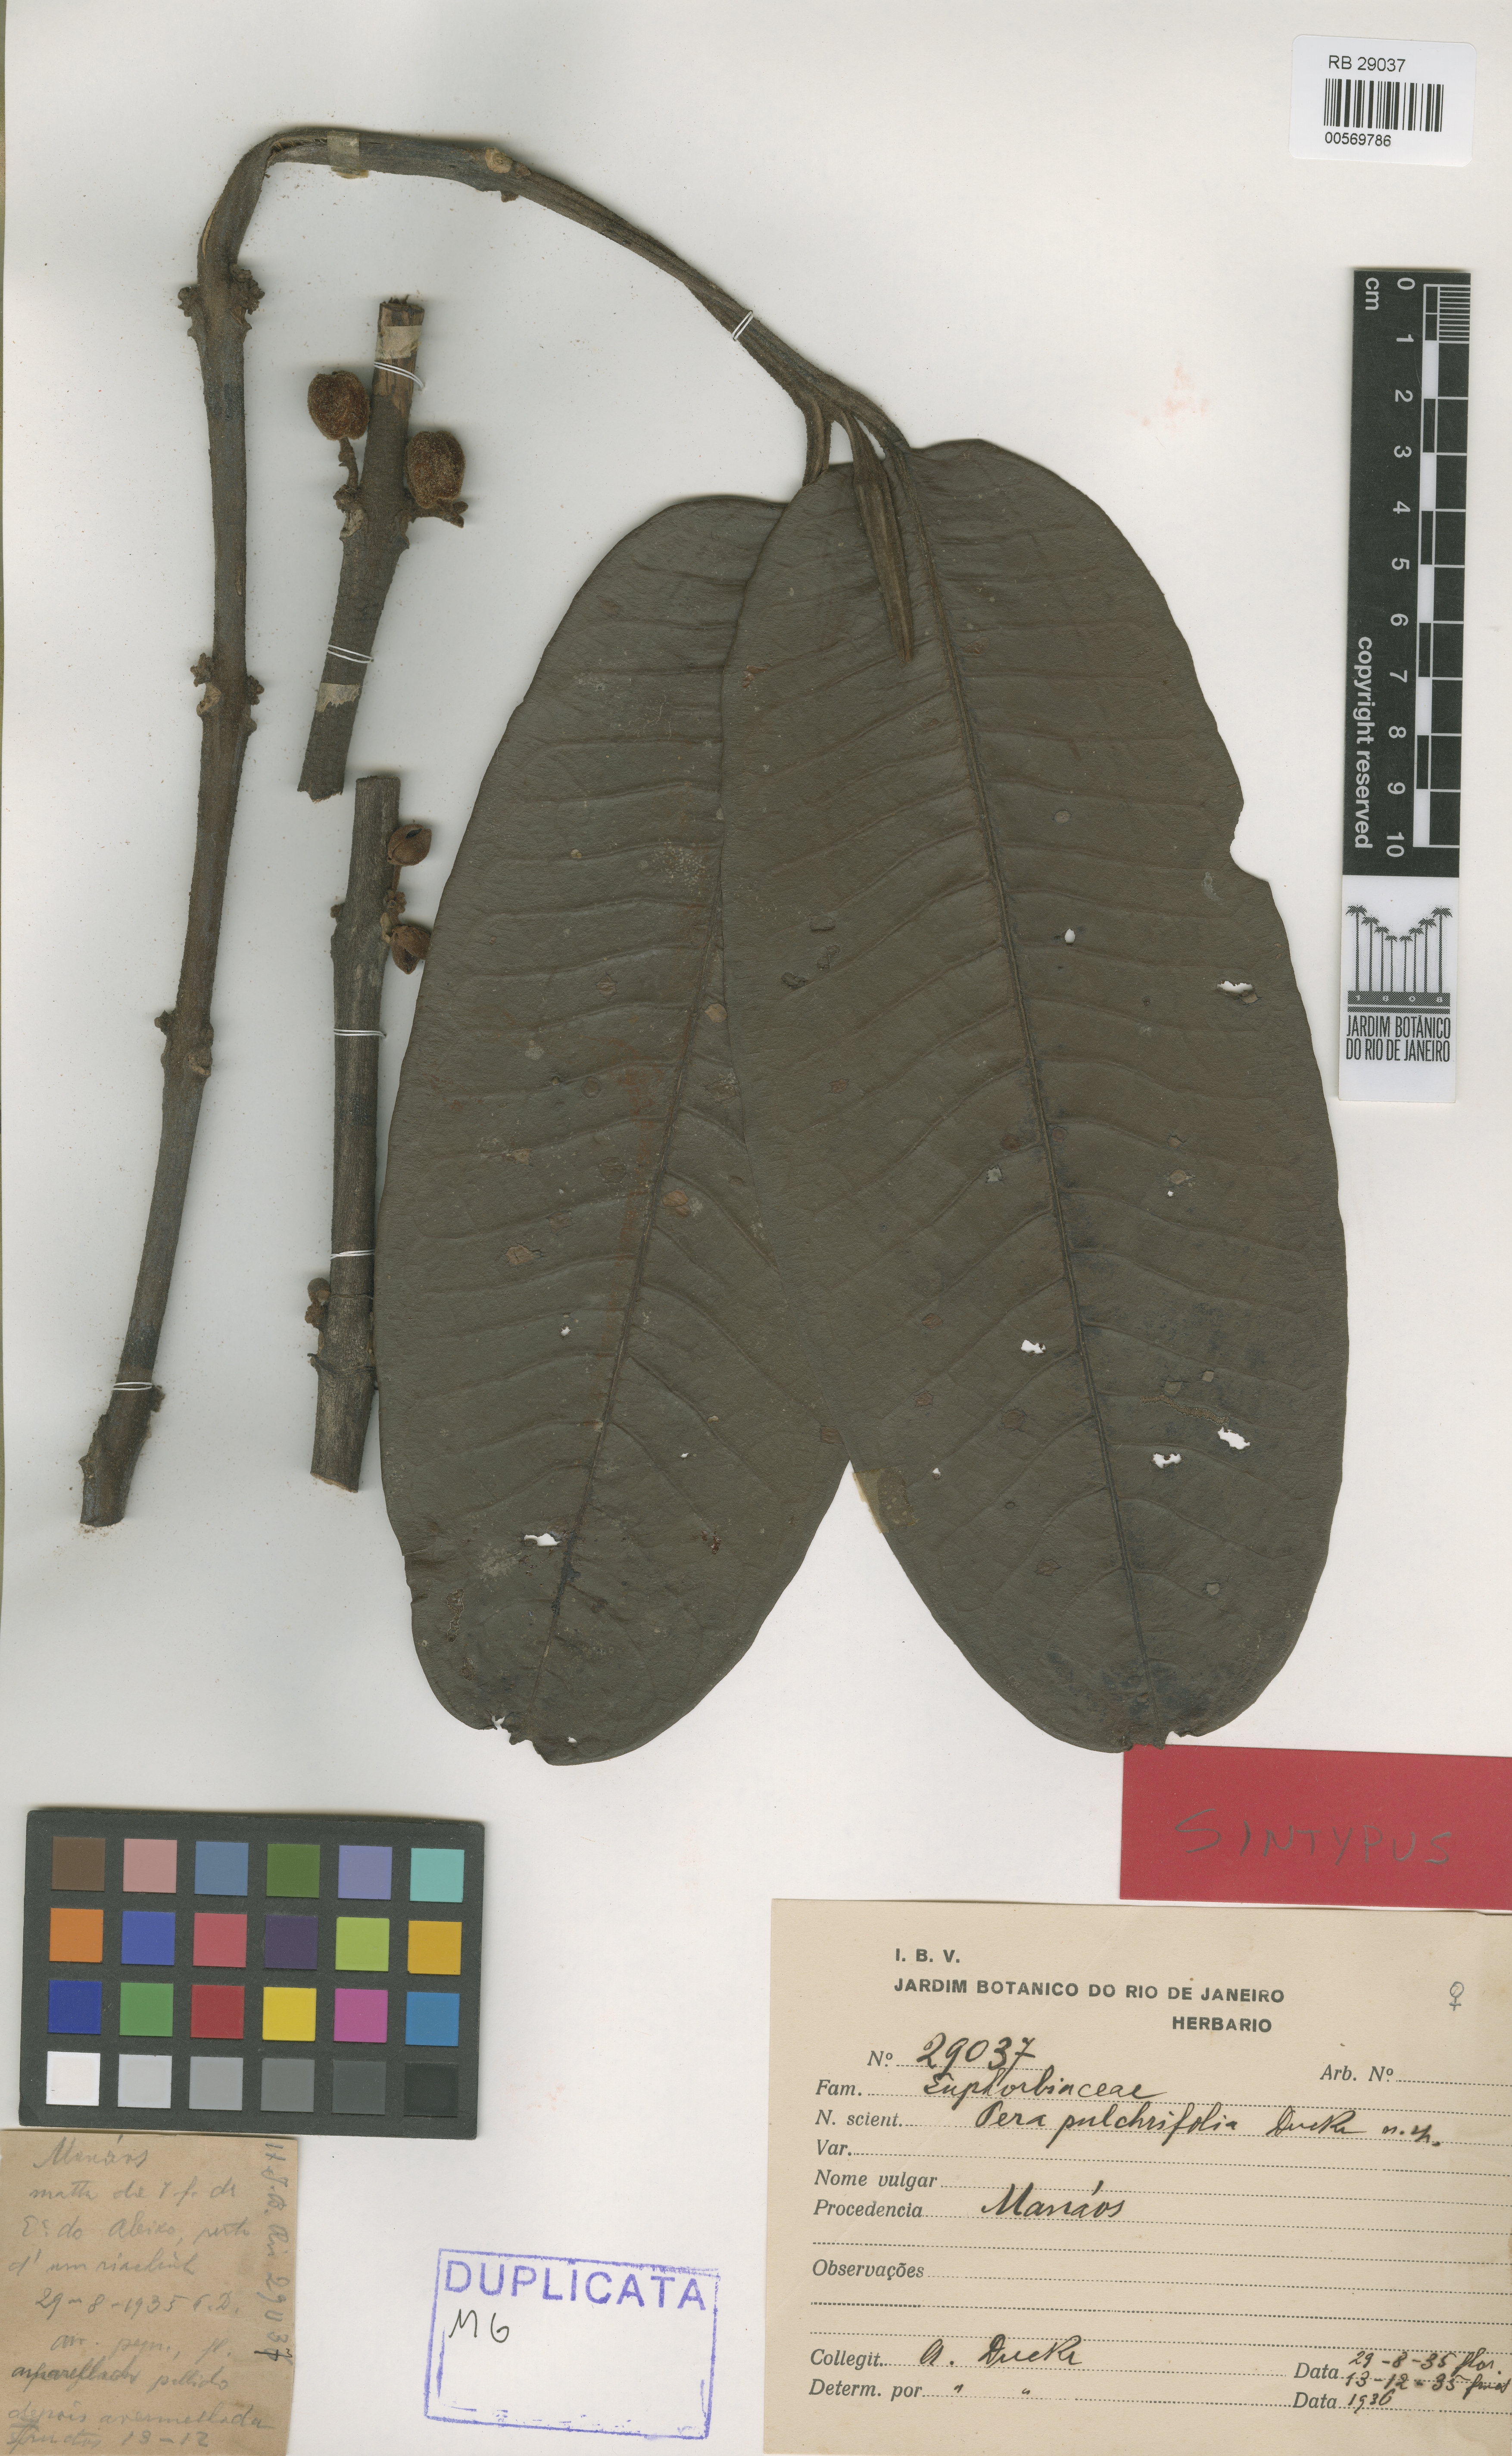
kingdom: Plantae
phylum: Tracheophyta
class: Magnoliopsida
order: Malpighiales
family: Peraceae
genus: Pera
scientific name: Pera pulchrifolia
